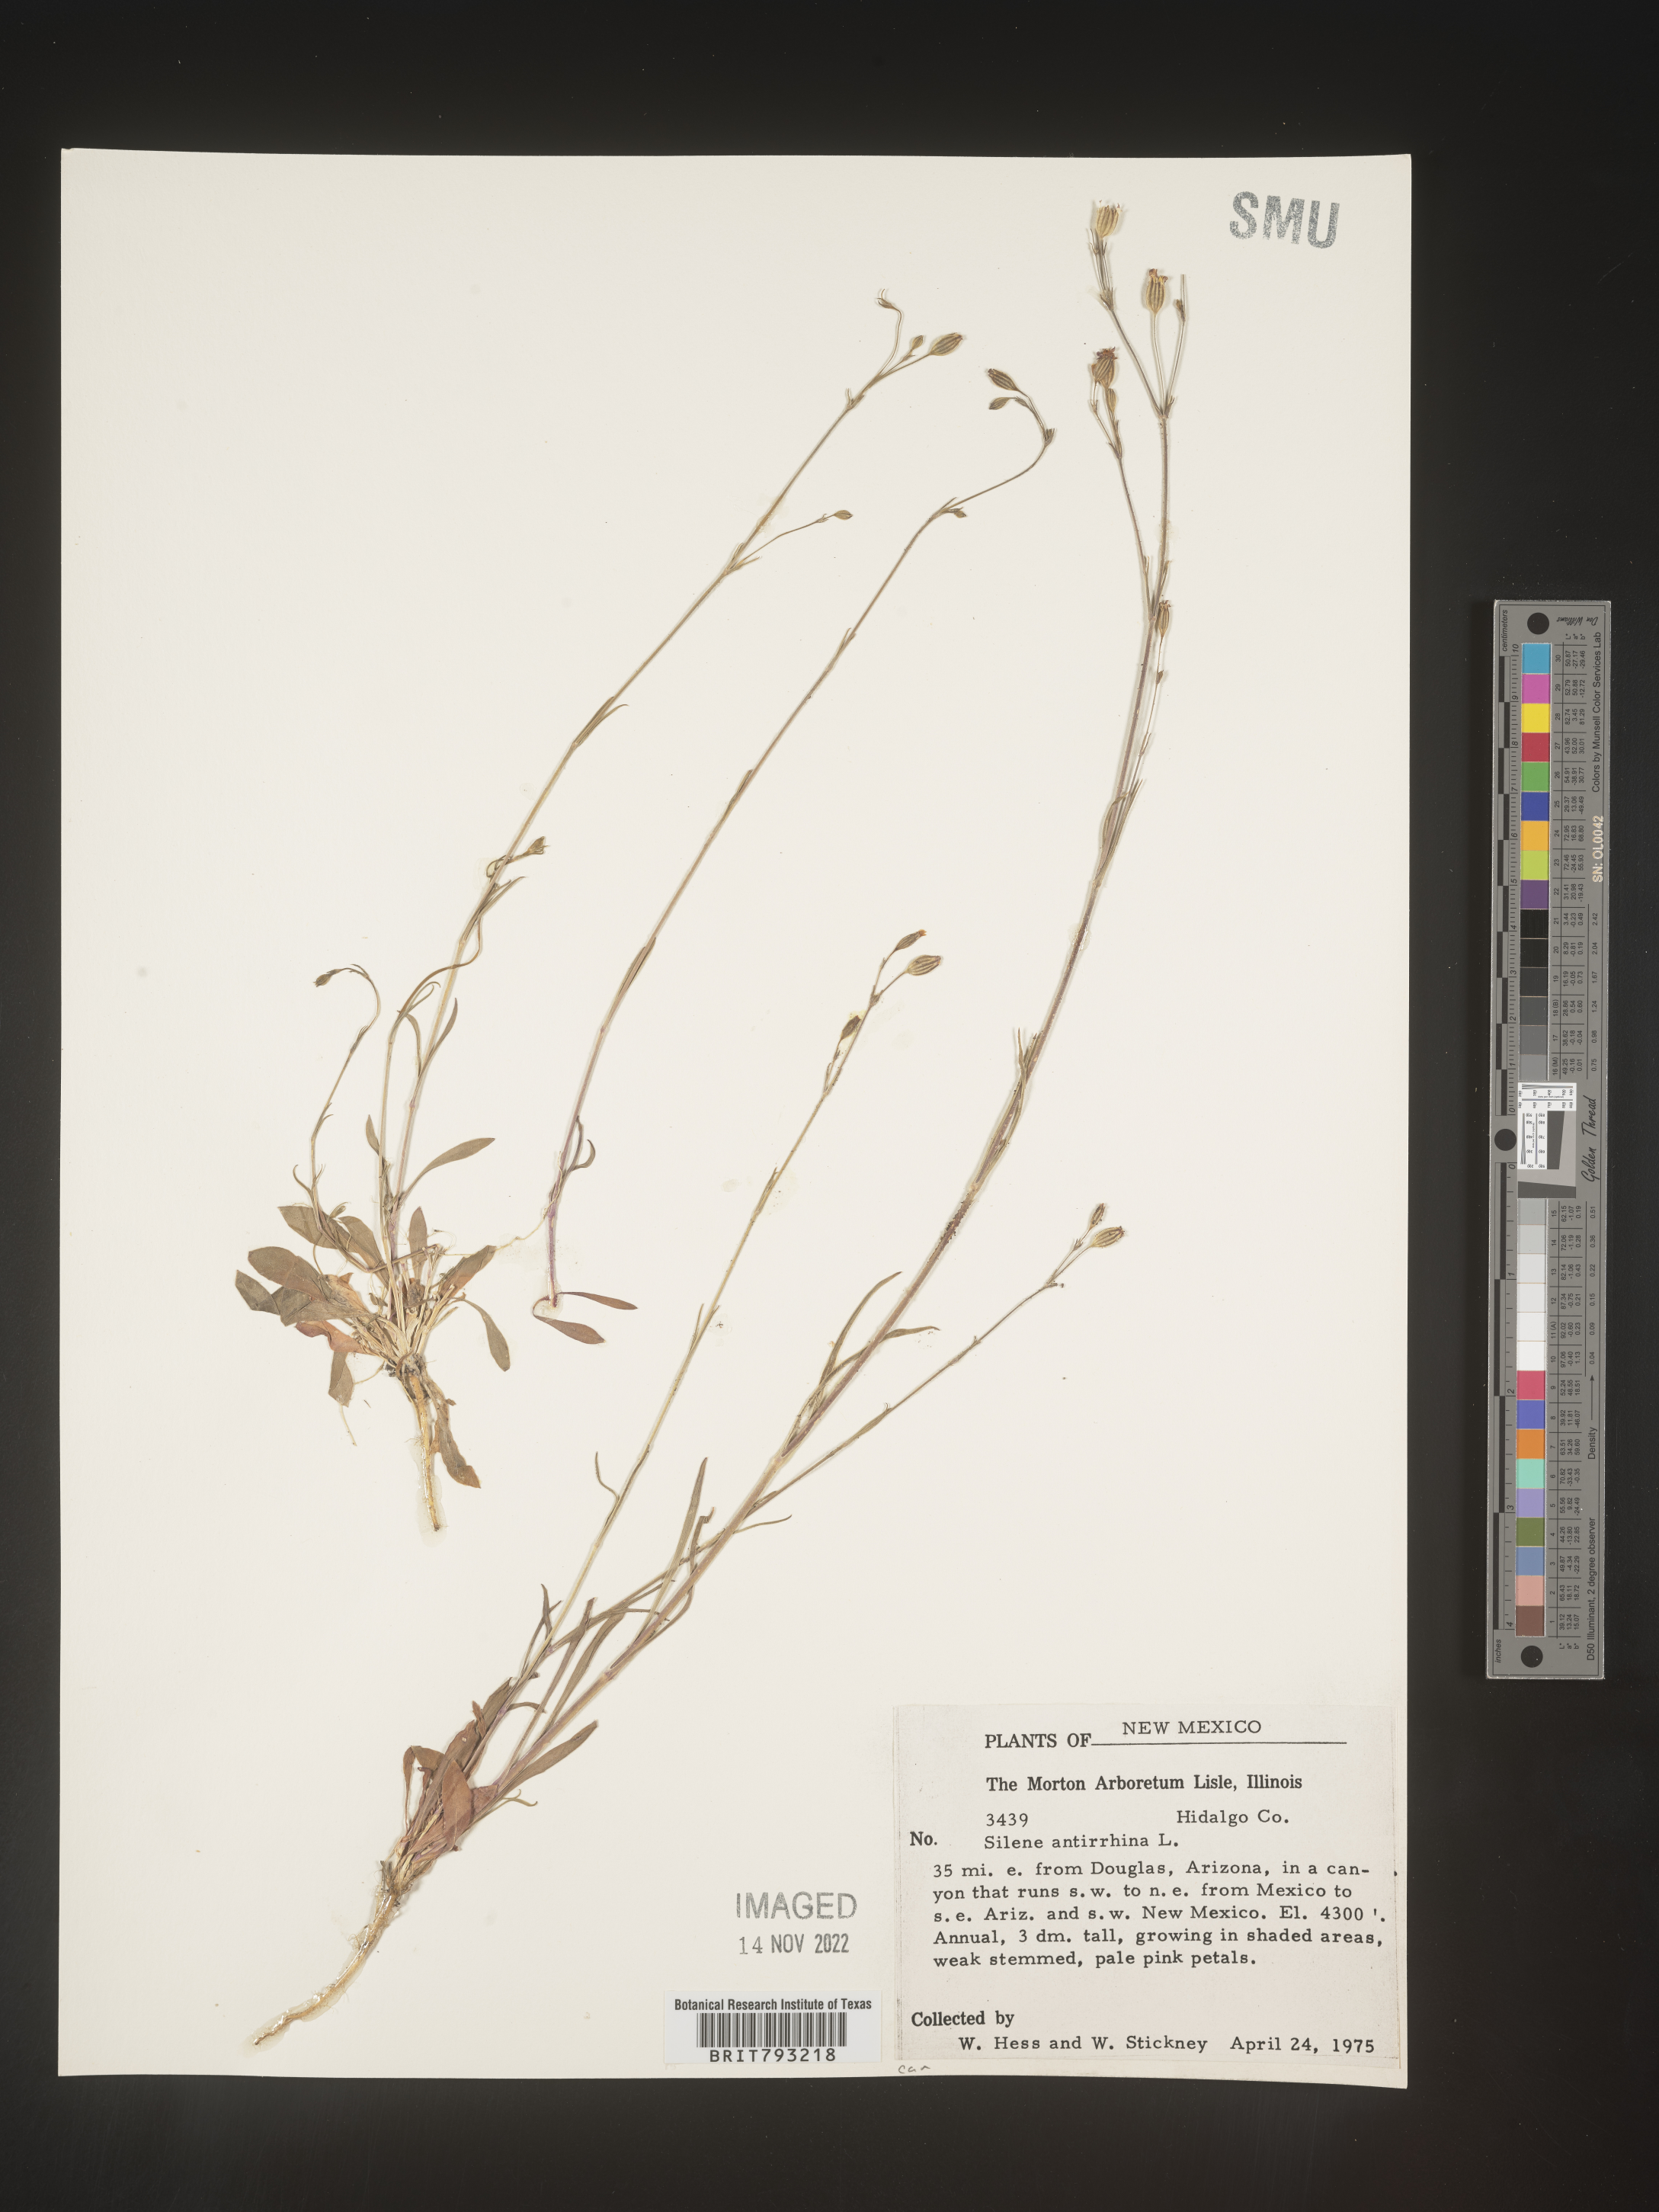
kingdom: Plantae
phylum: Tracheophyta
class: Magnoliopsida
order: Caryophyllales
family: Caryophyllaceae
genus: Silene
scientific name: Silene antirrhina
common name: Sleepy catchfly
